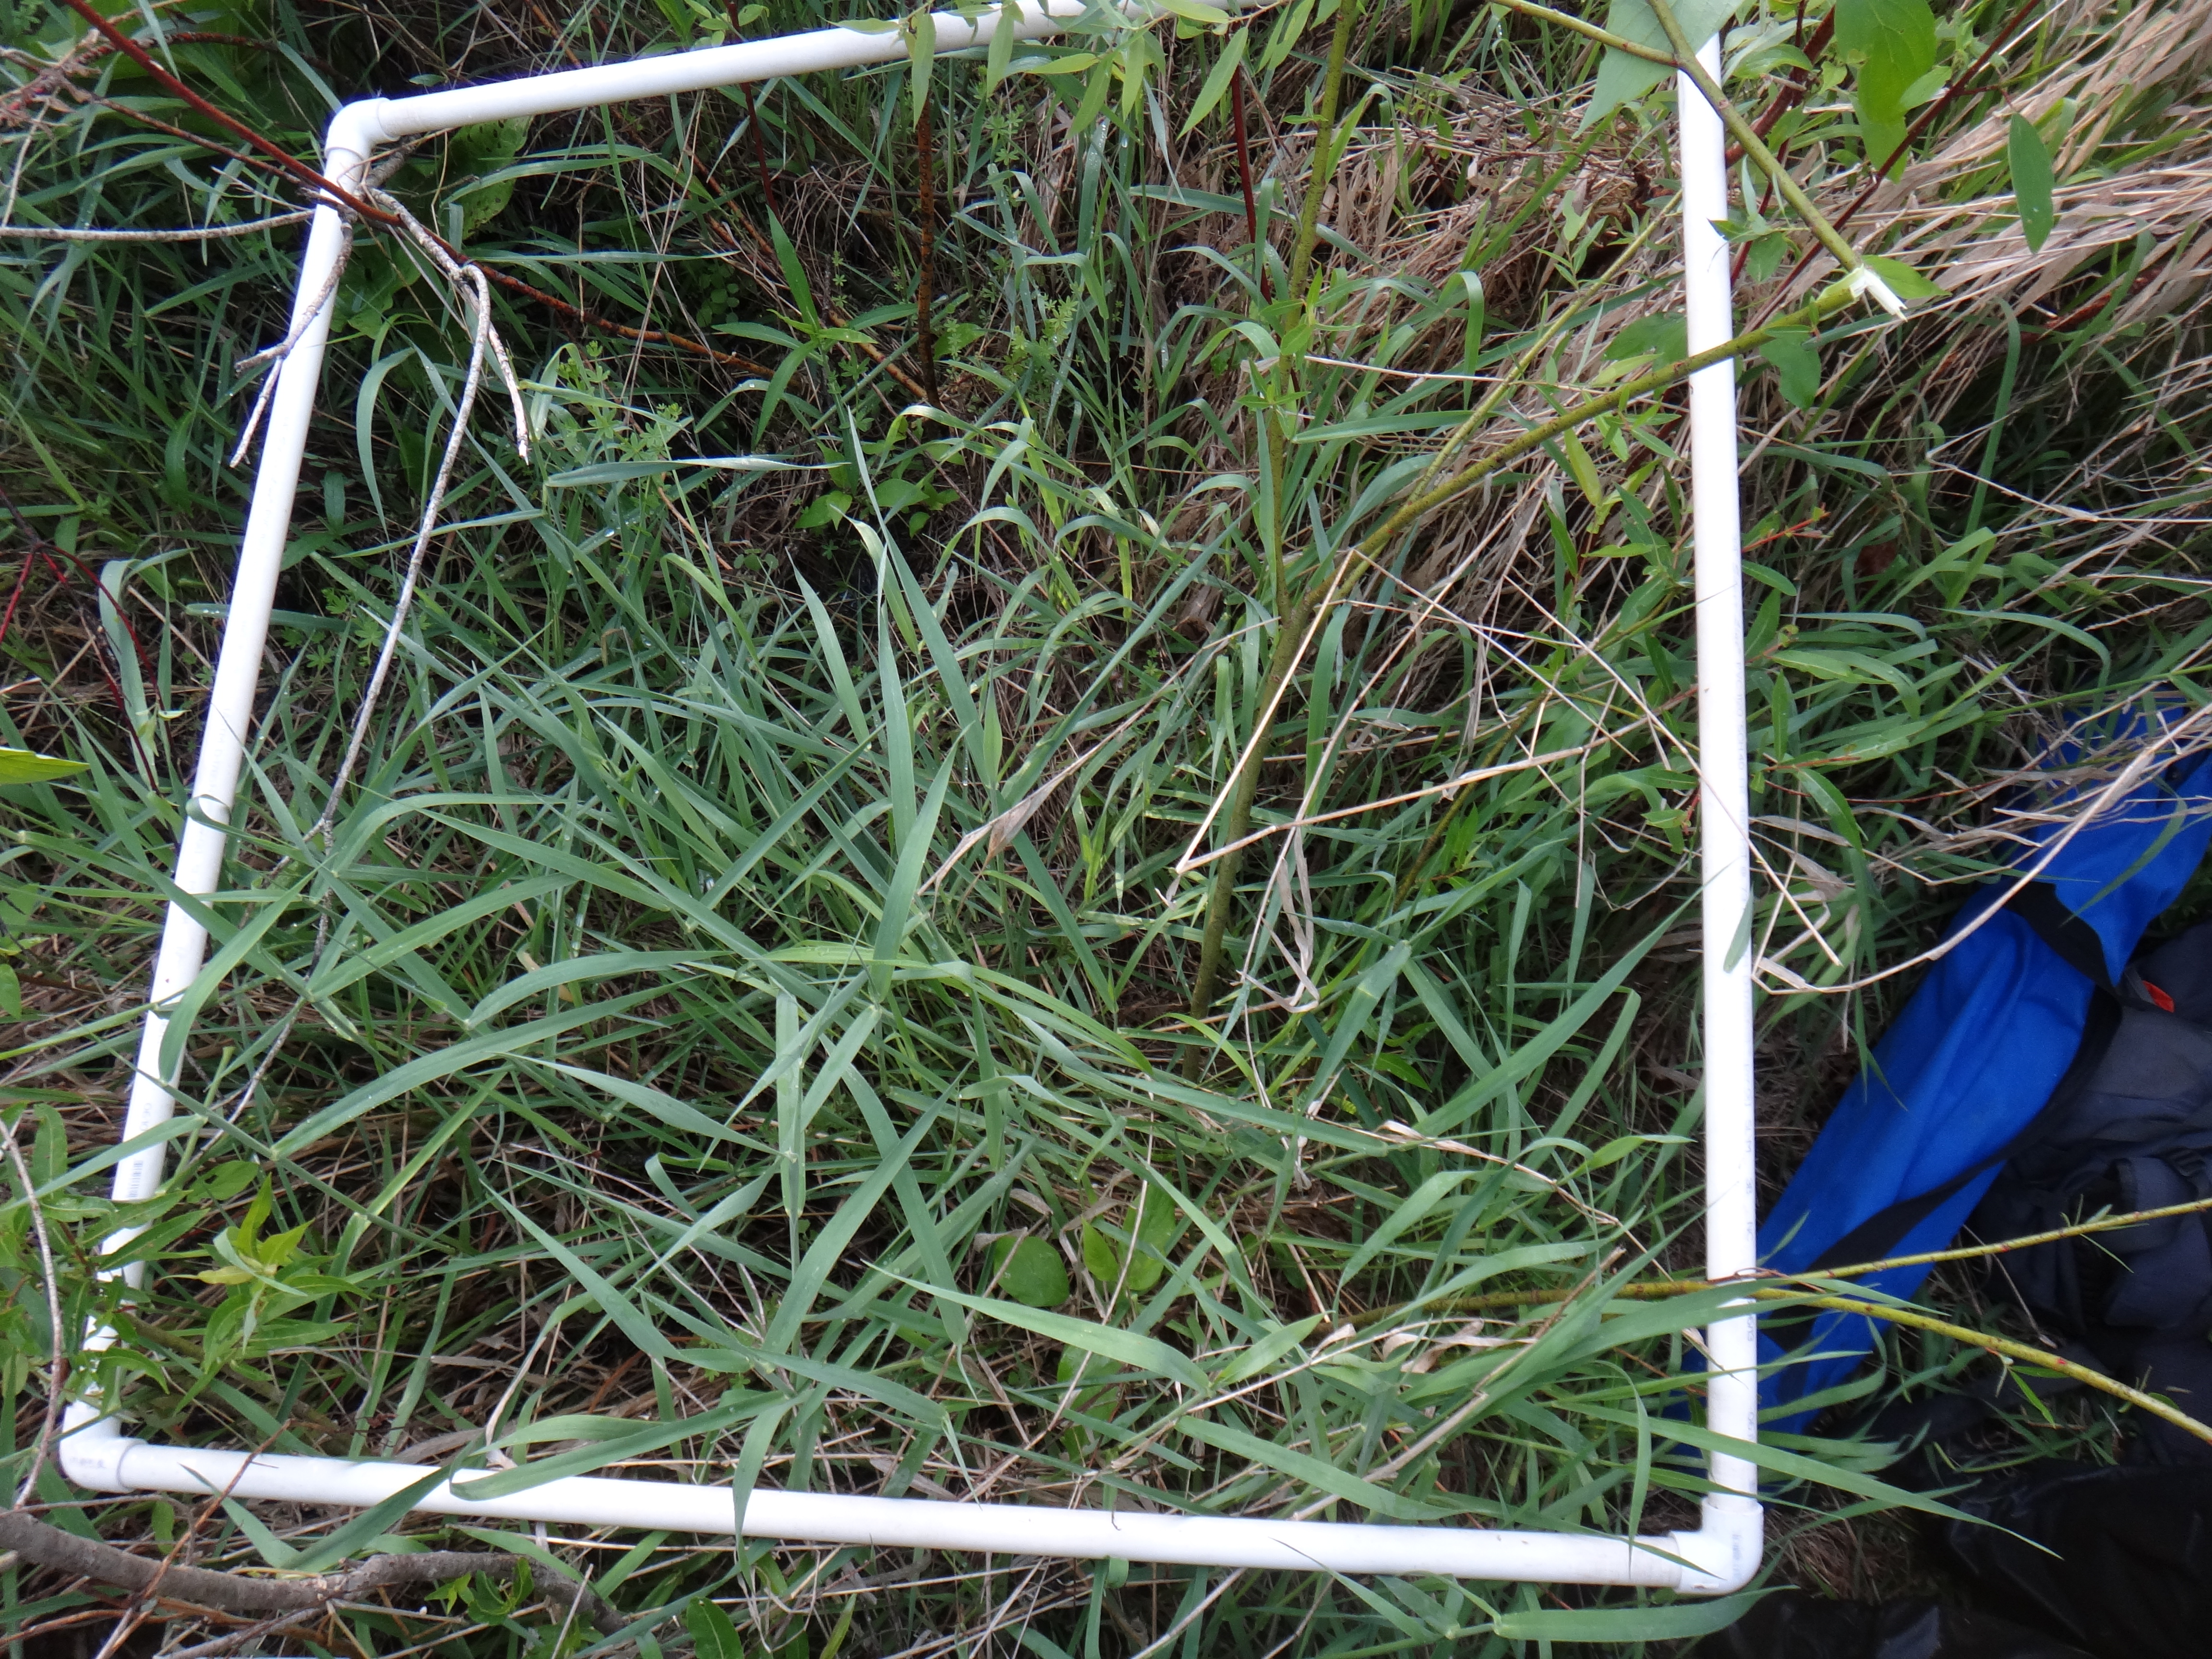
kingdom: Plantae
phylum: Tracheophyta
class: Liliopsida
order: Poales
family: Poaceae
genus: Phalaris
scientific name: Phalaris arundinacea
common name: Reed canary-grass
